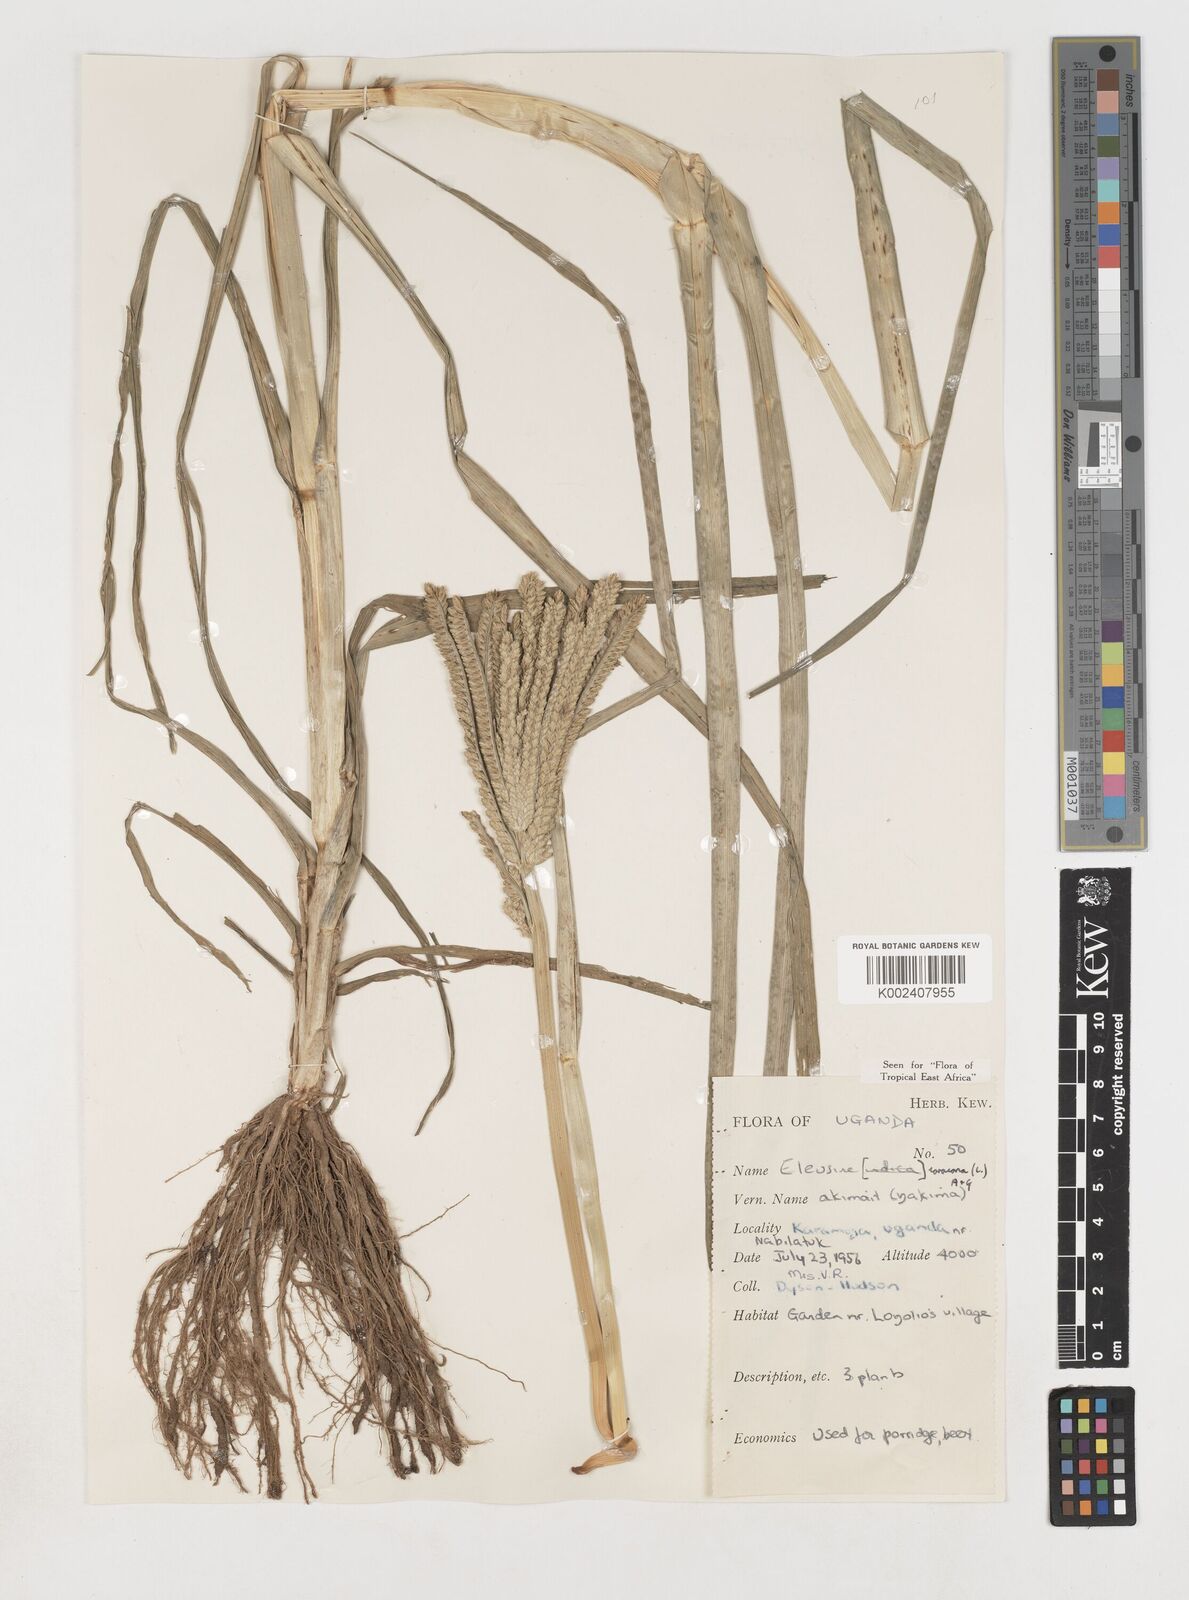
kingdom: Plantae
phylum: Tracheophyta
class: Liliopsida
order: Poales
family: Poaceae
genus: Eleusine
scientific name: Eleusine coracana
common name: Finger millet
